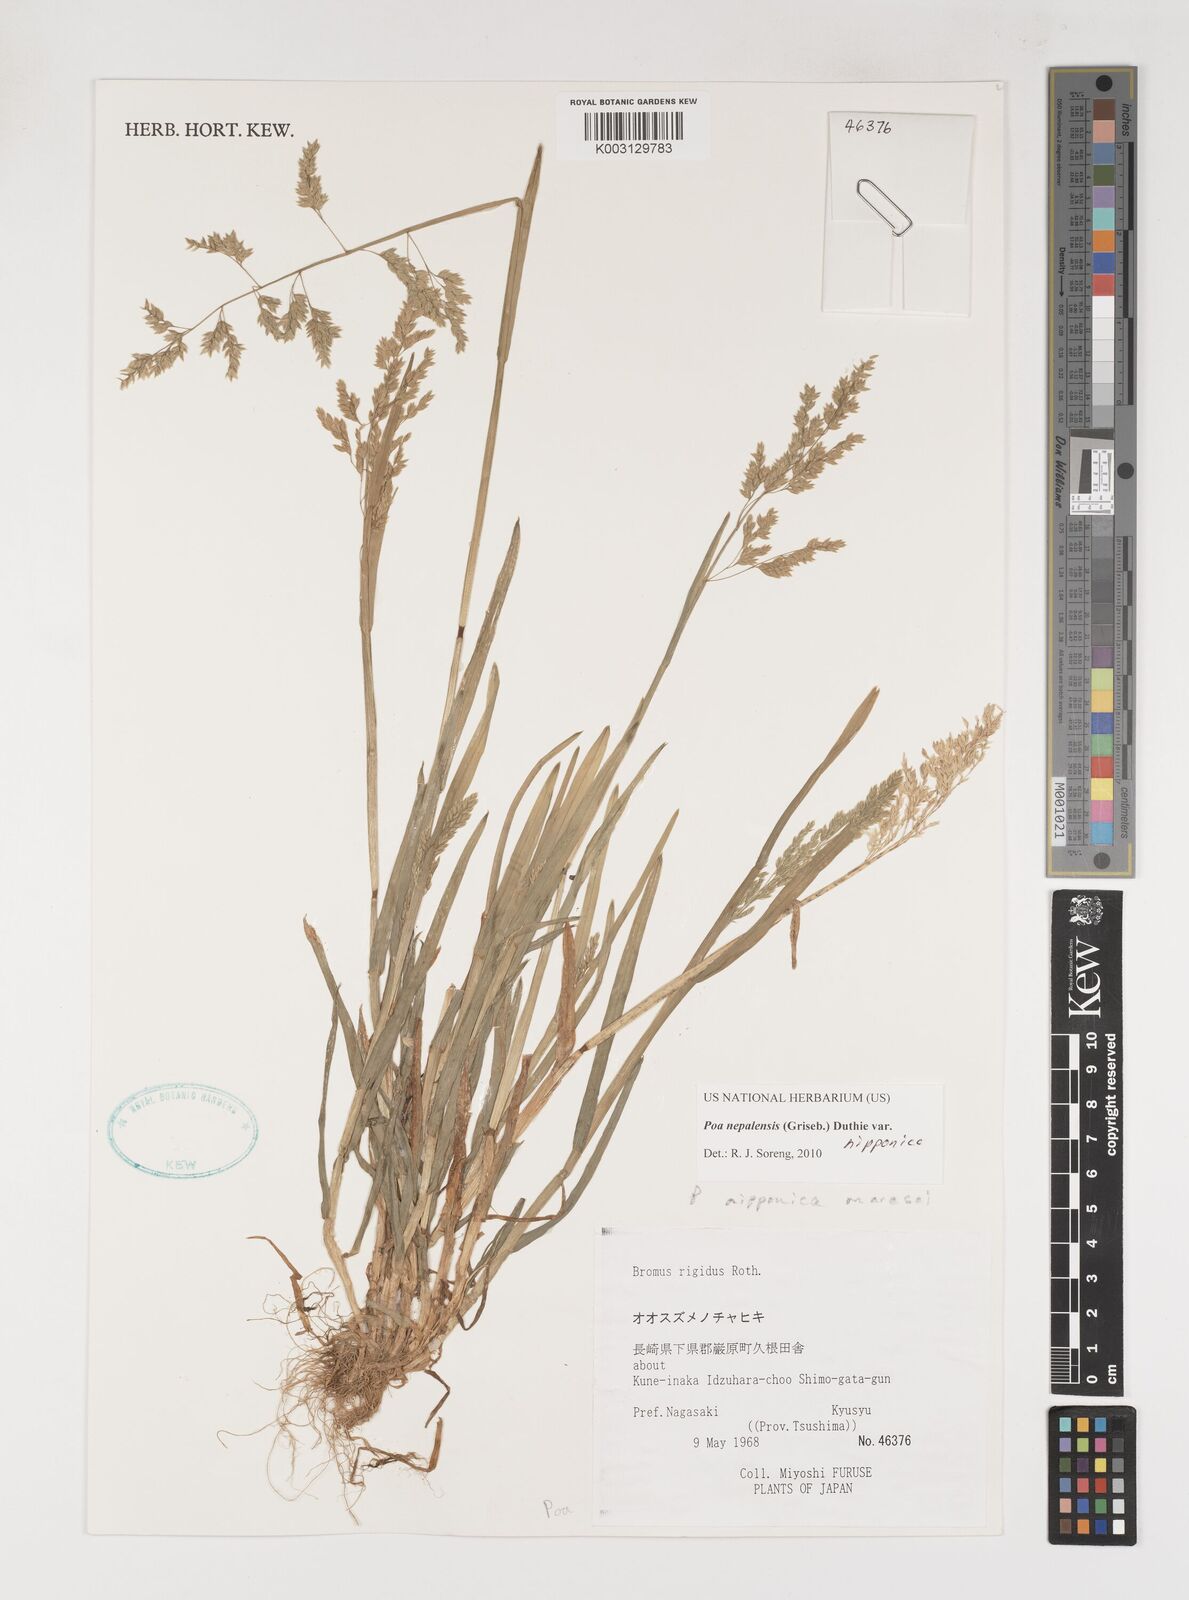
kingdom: Plantae
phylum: Tracheophyta
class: Liliopsida
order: Poales
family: Poaceae
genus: Poa
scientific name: Poa nepalensis
